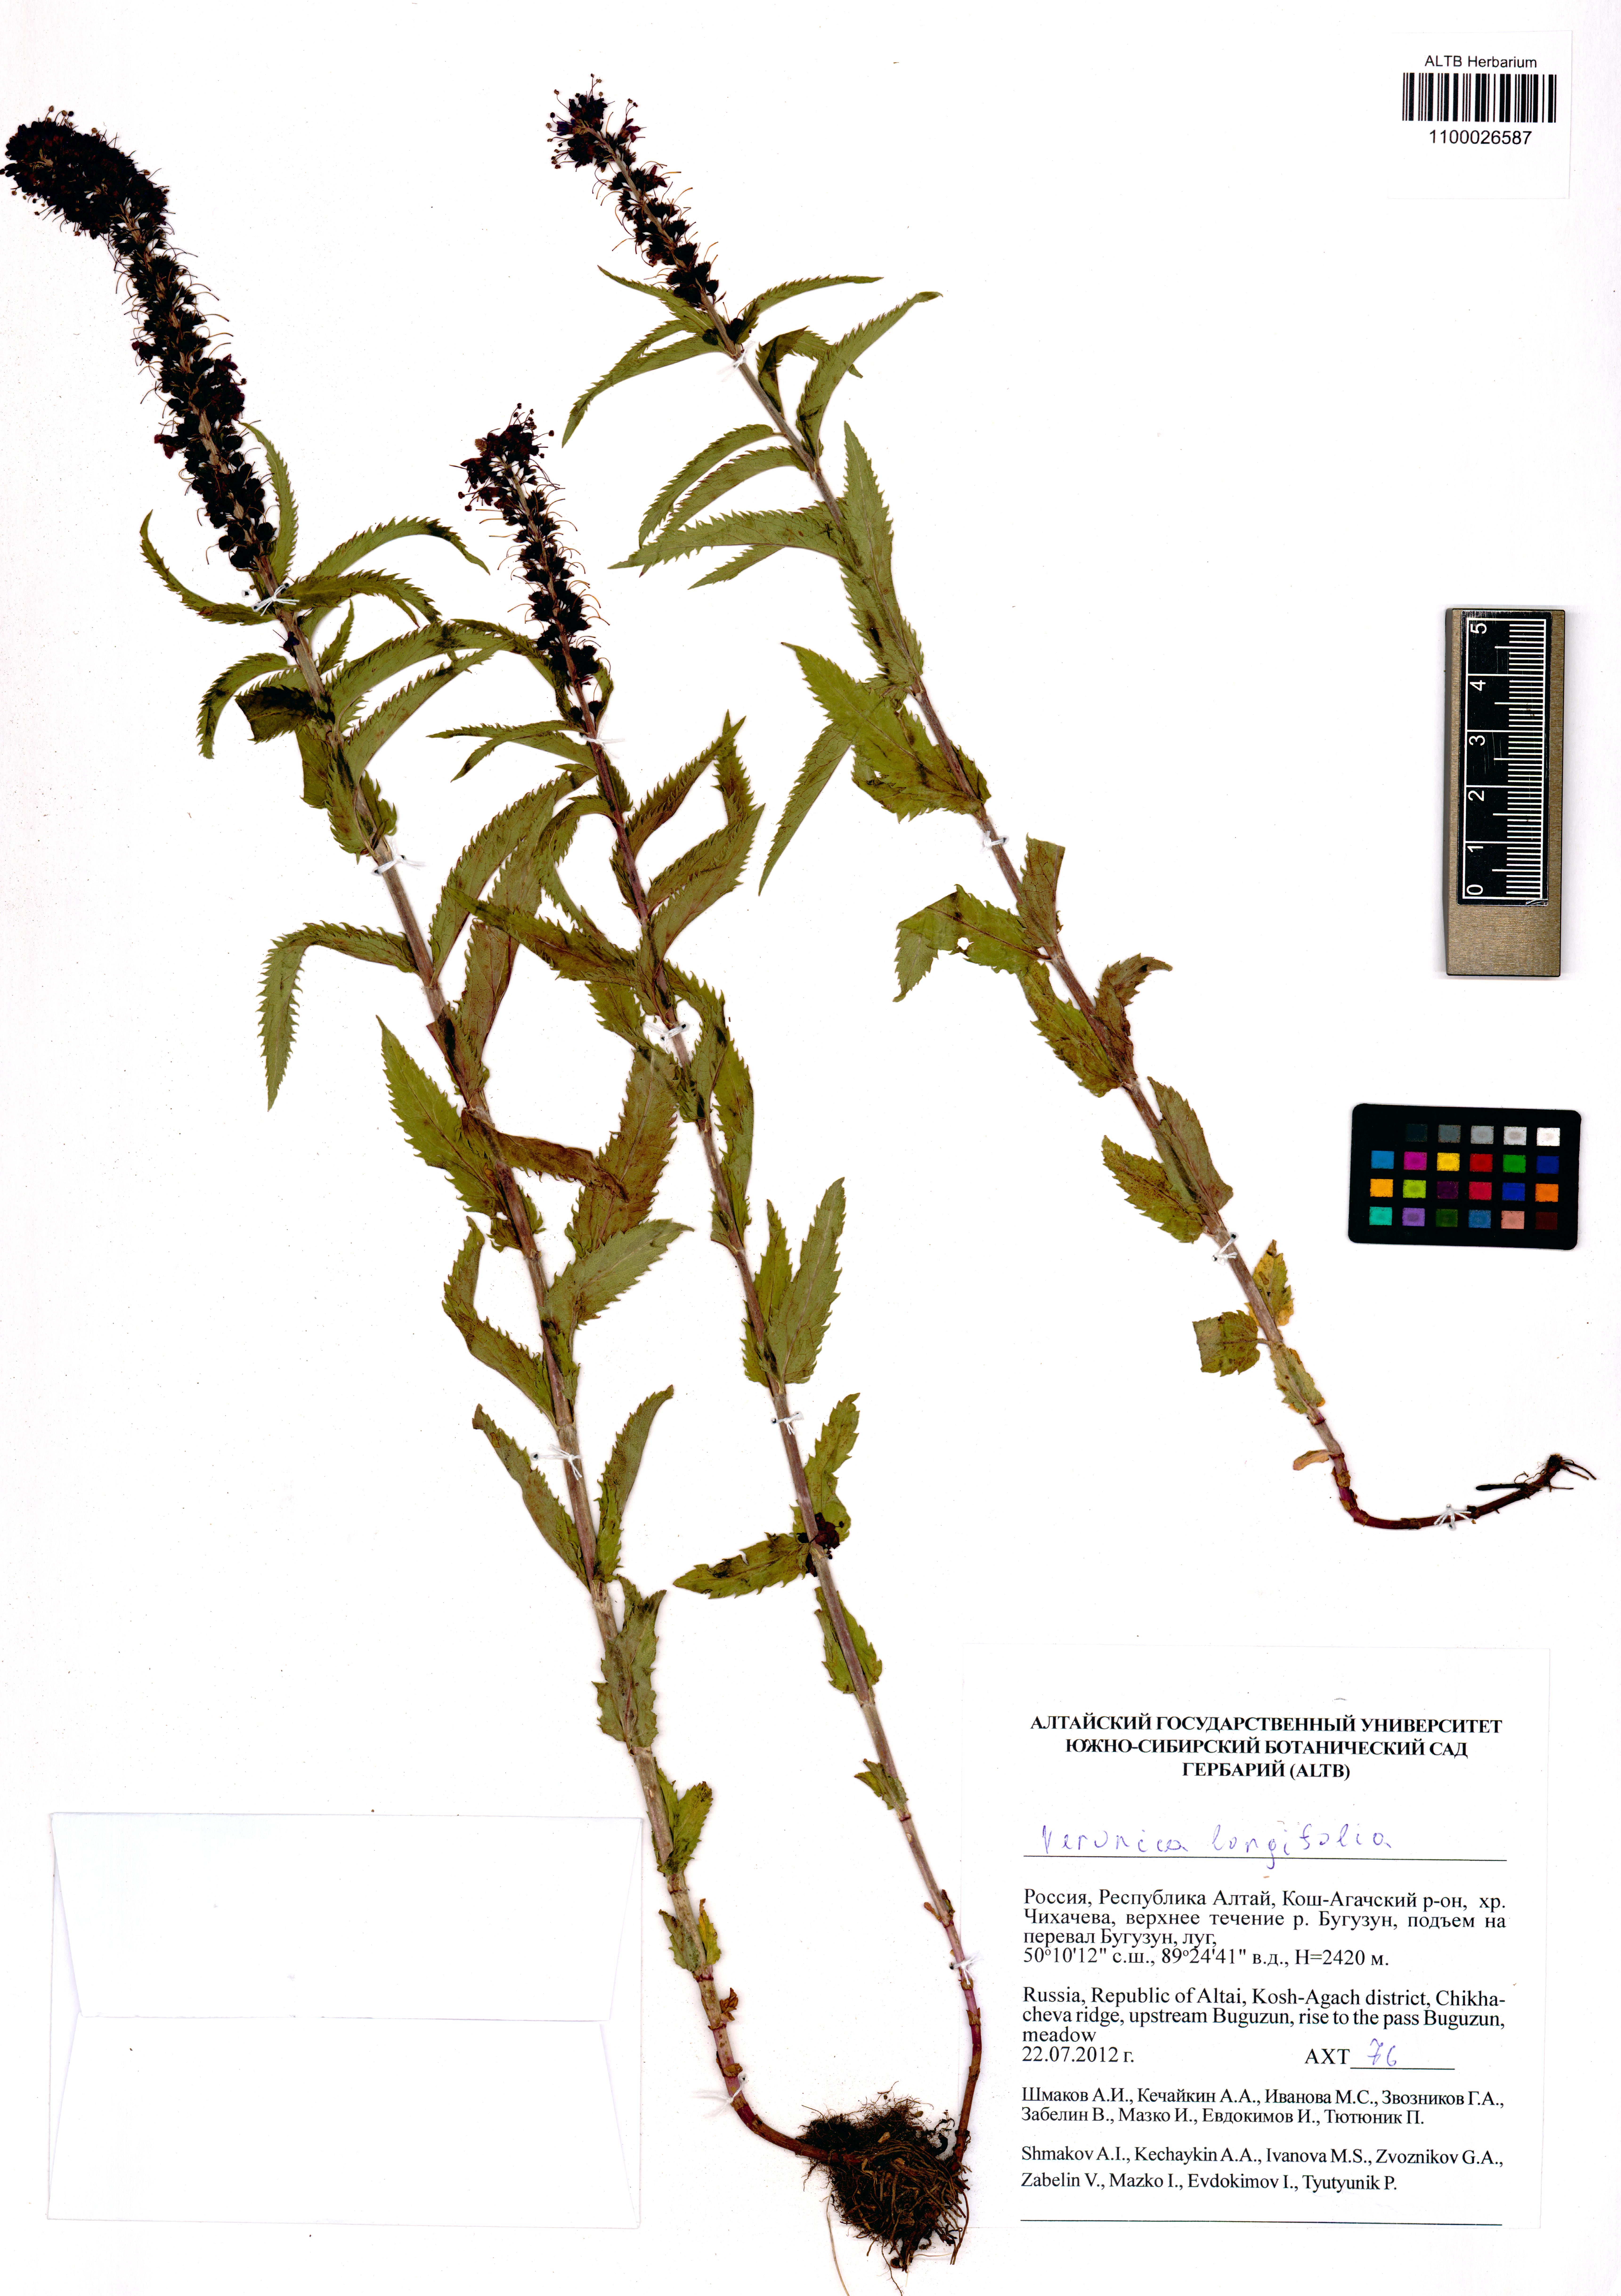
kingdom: Plantae
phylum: Tracheophyta
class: Magnoliopsida
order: Lamiales
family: Plantaginaceae
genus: Veronica
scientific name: Veronica longifolia
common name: Garden speedwell
